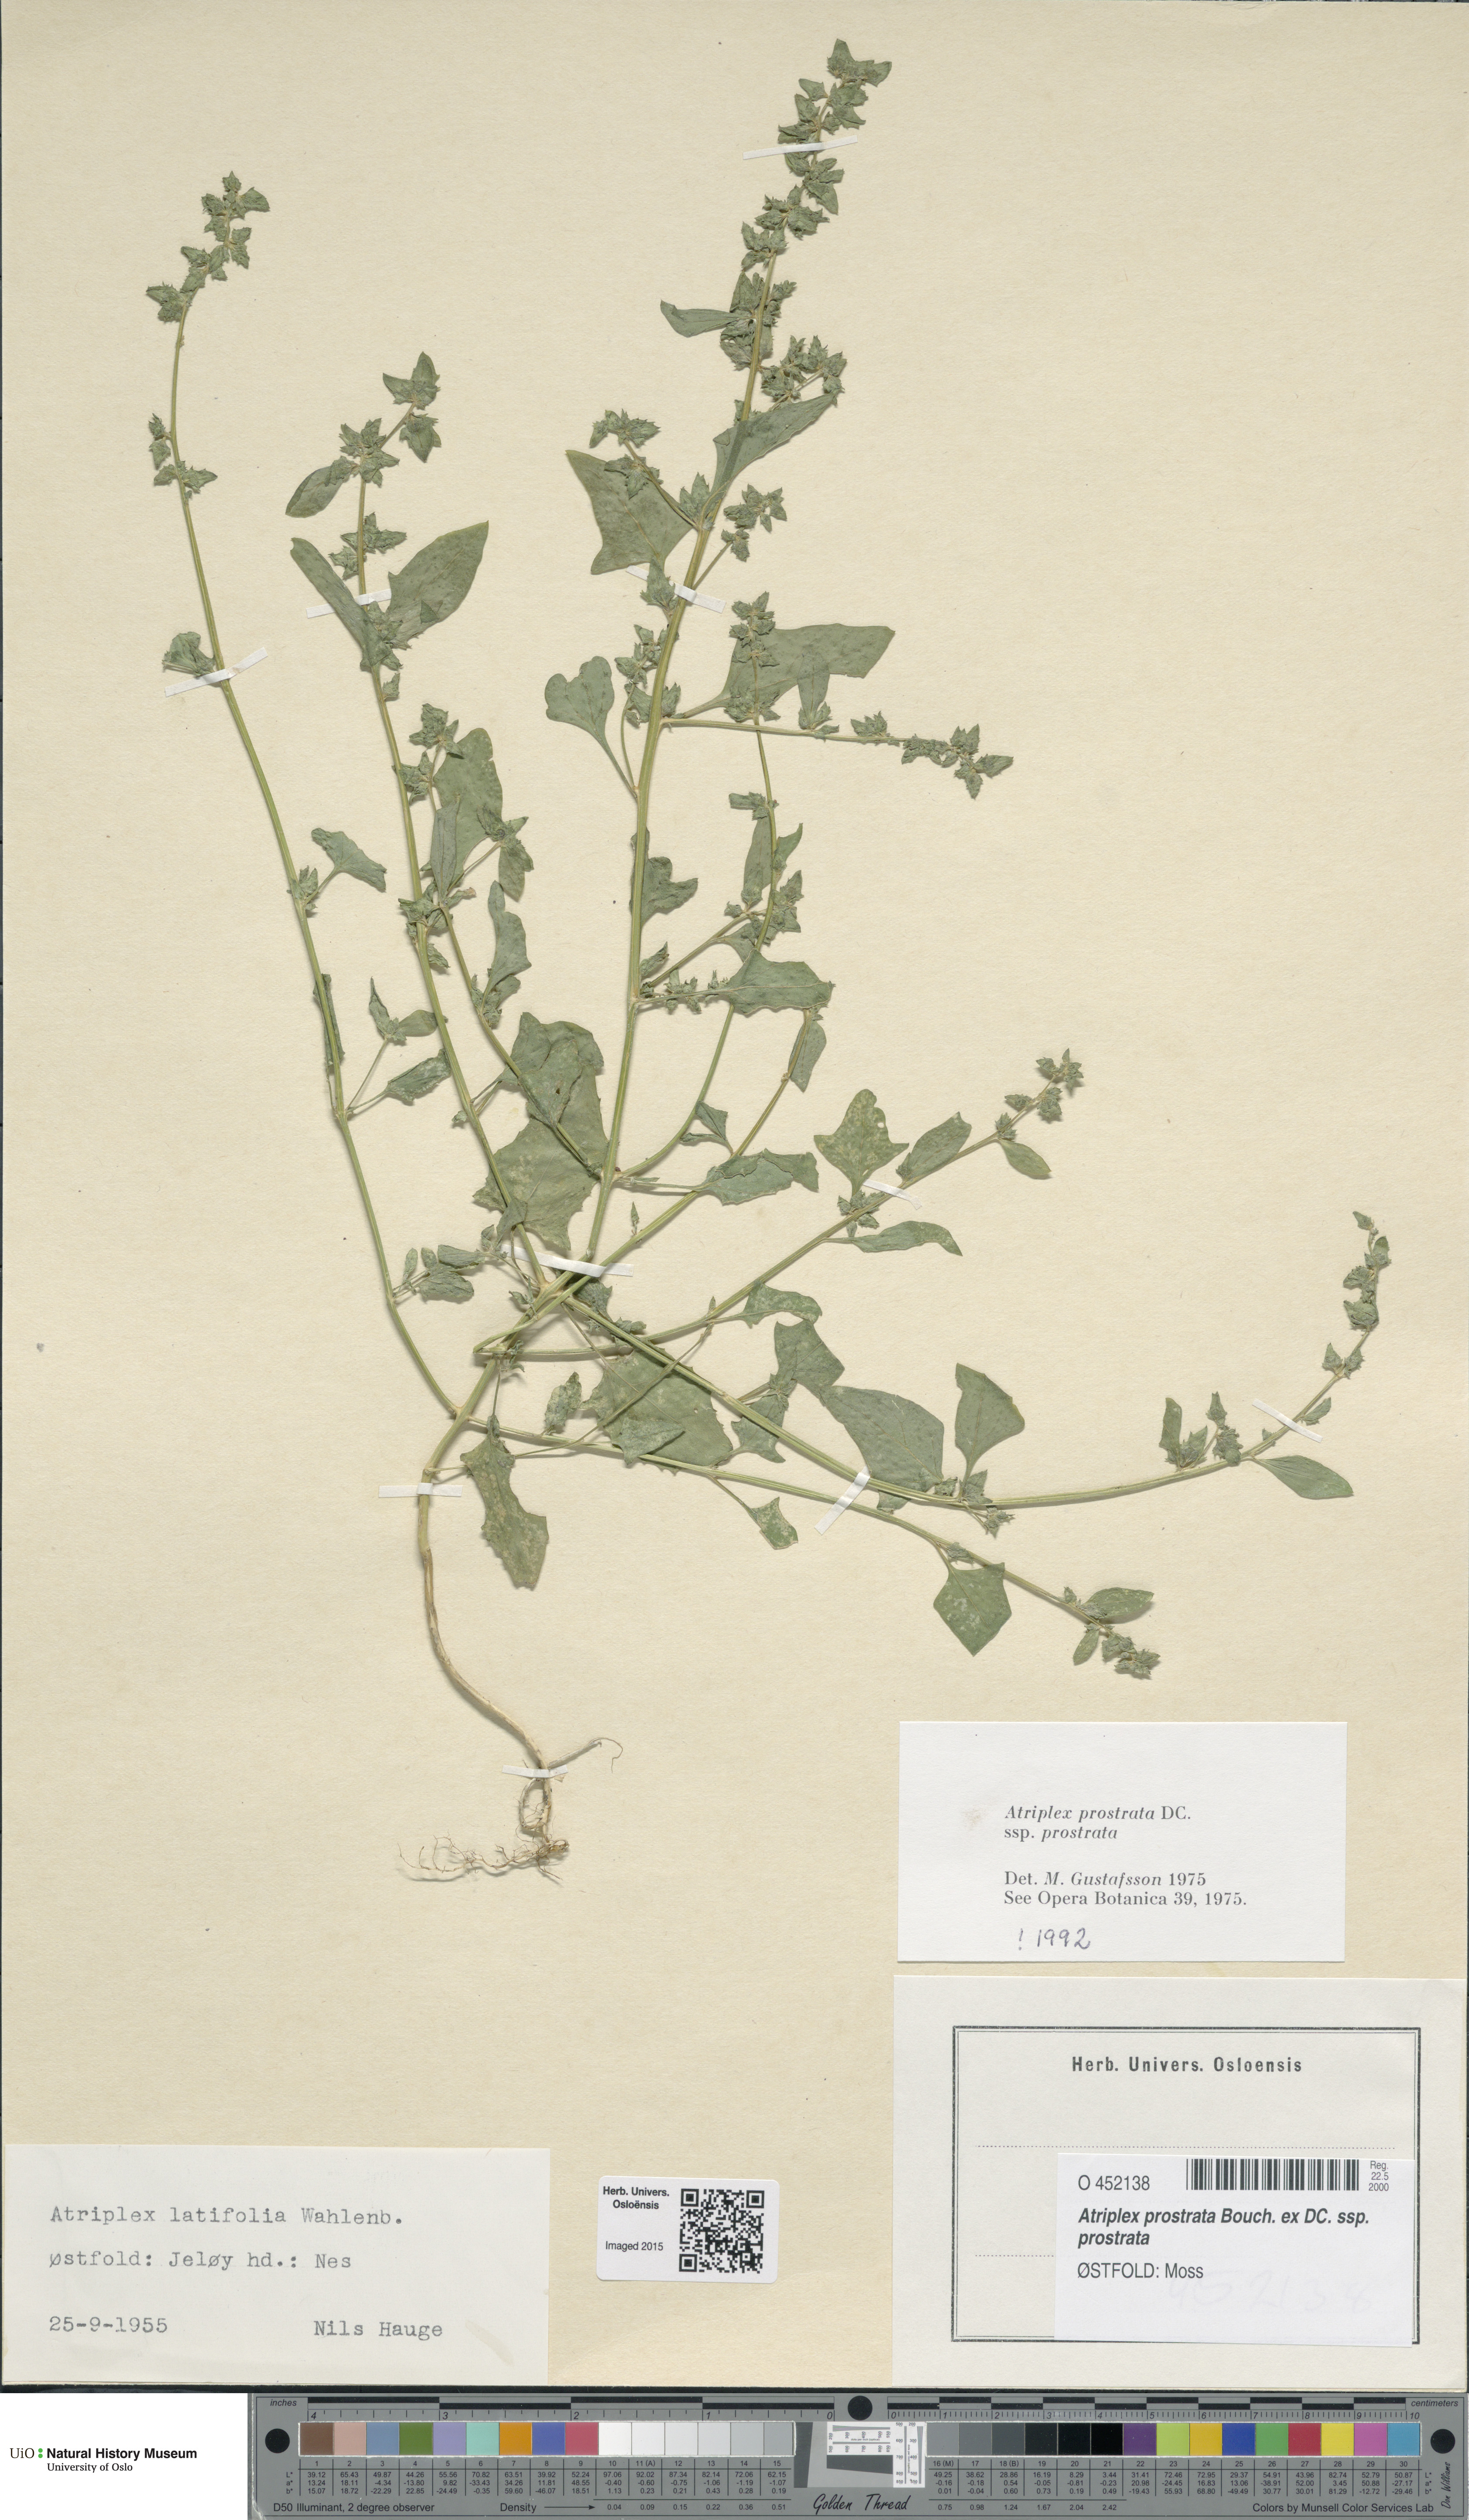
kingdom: Plantae
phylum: Tracheophyta
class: Magnoliopsida
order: Caryophyllales
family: Amaranthaceae
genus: Atriplex
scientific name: Atriplex prostrata
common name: Spear-leaved orache
